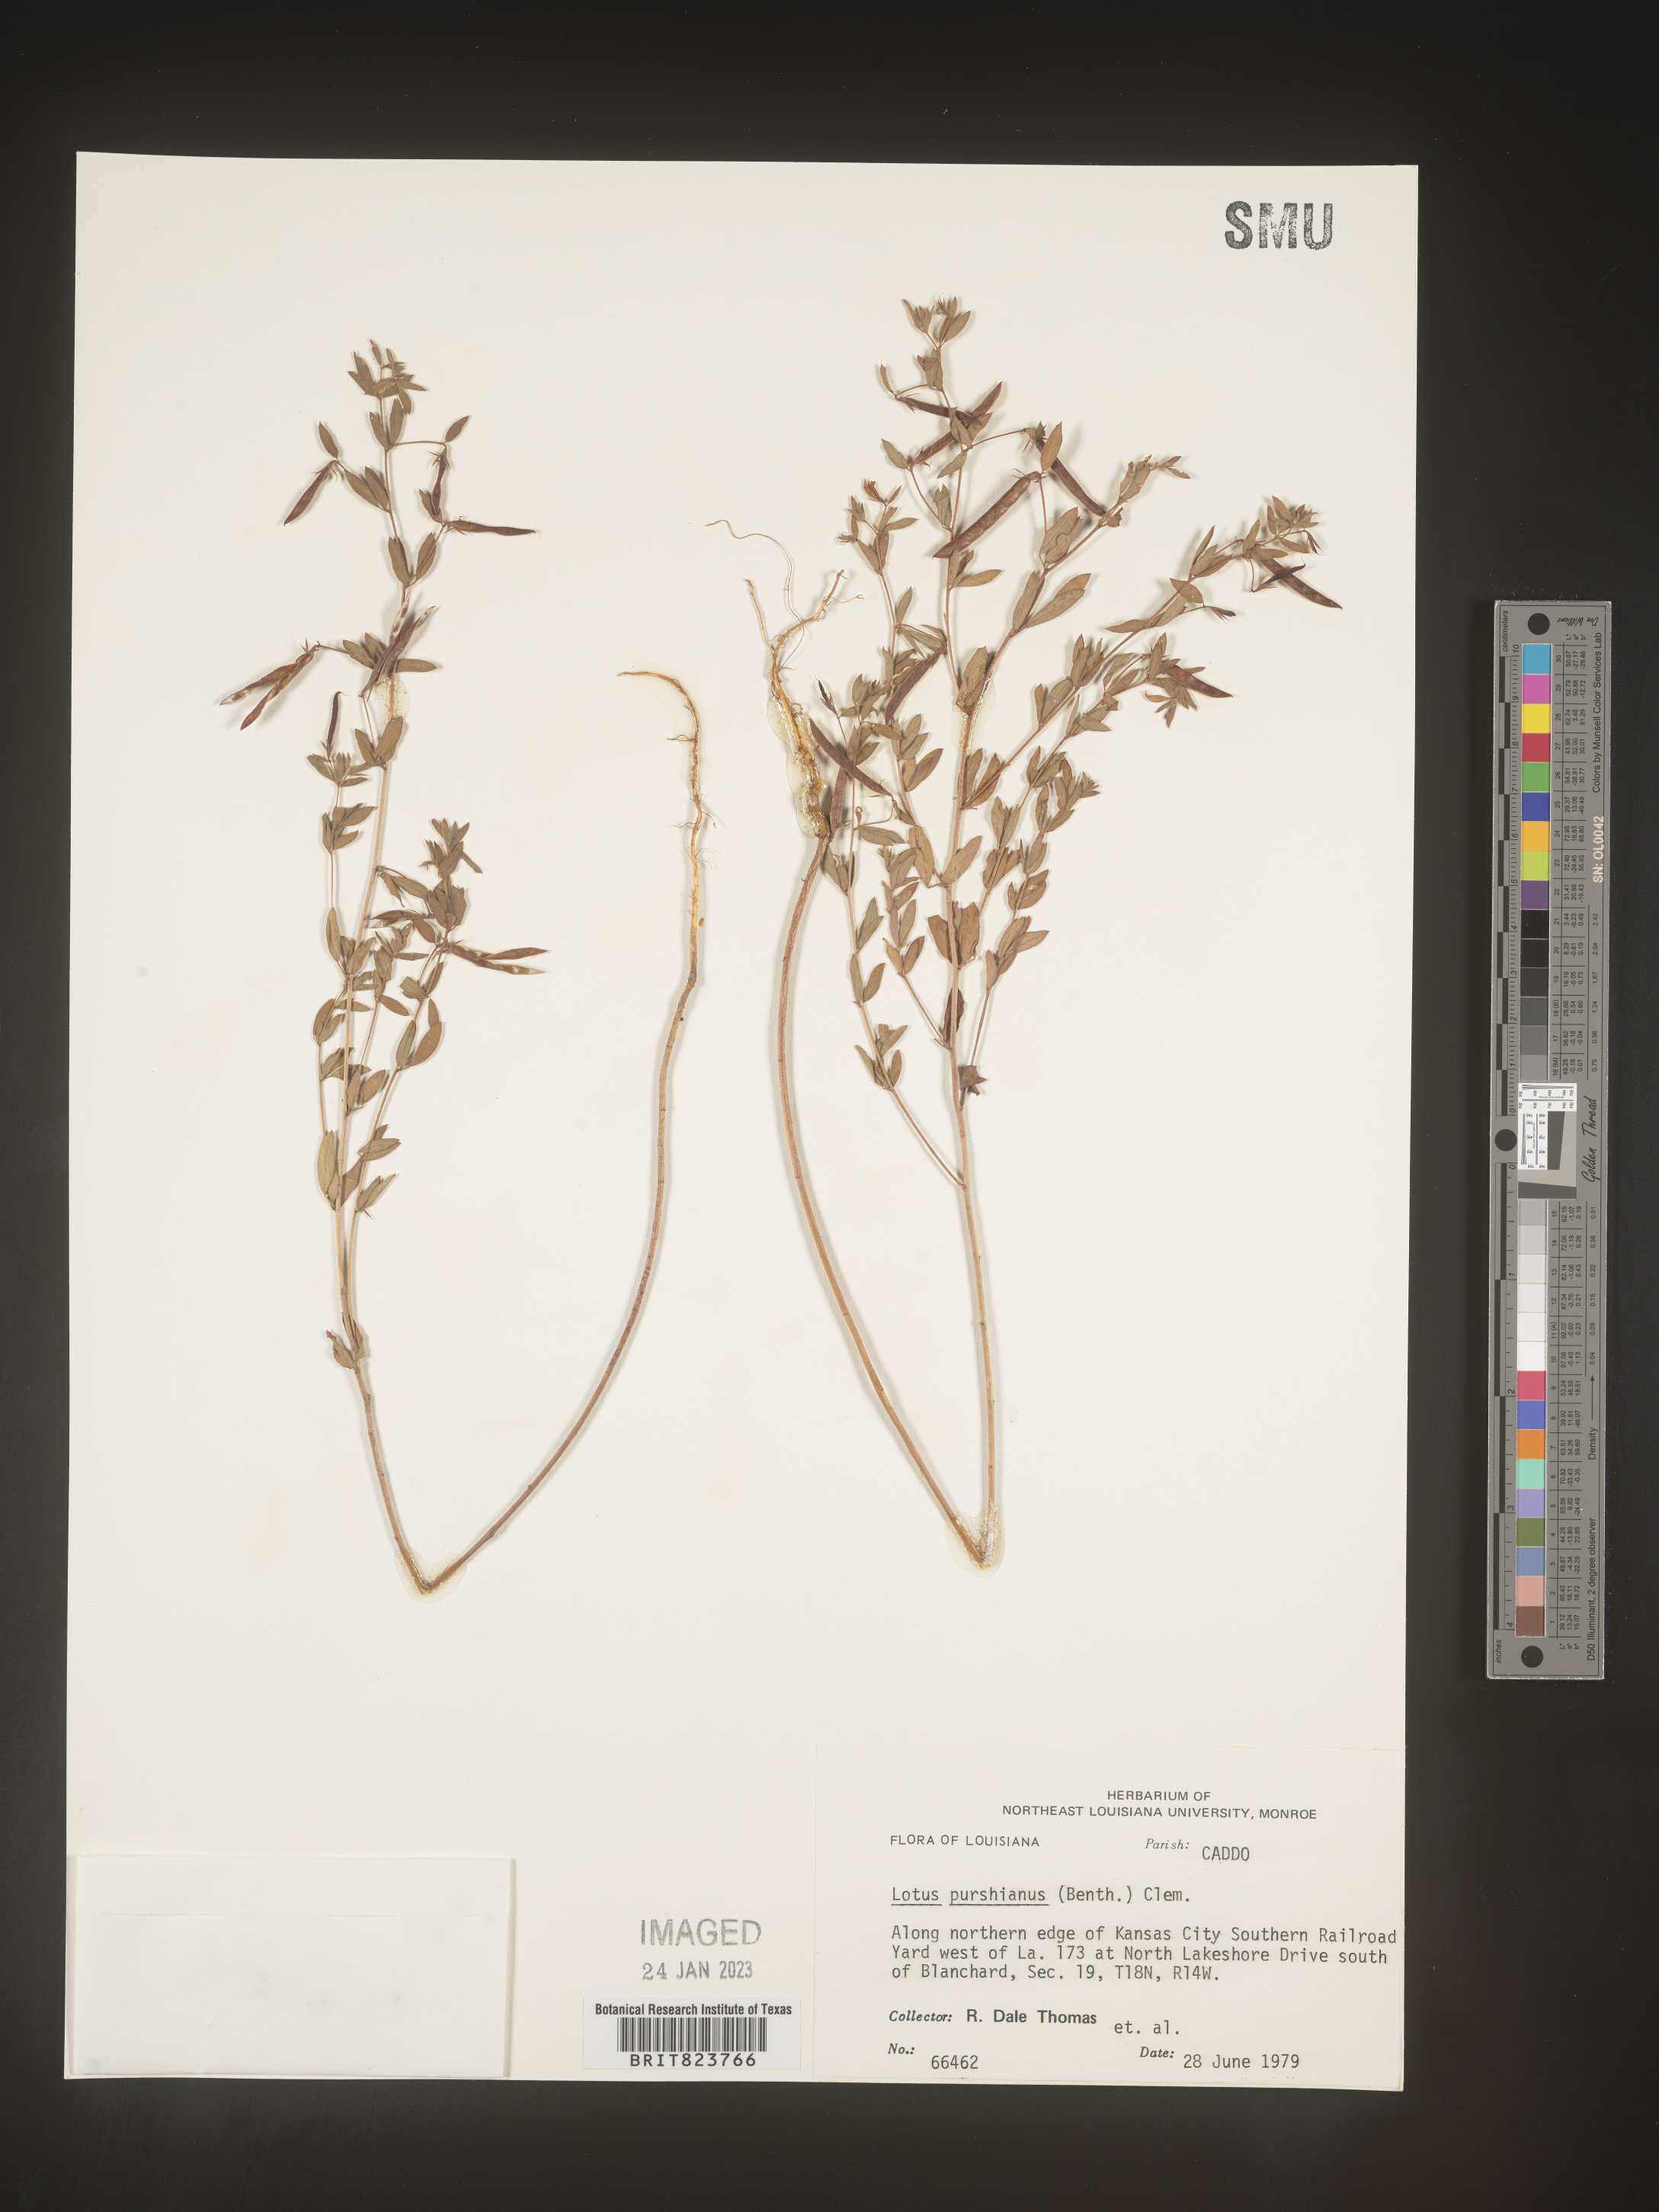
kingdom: Plantae
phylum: Tracheophyta
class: Magnoliopsida
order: Fabales
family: Fabaceae
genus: Acmispon
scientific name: Acmispon americanus
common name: American bird's-foot trefoil
